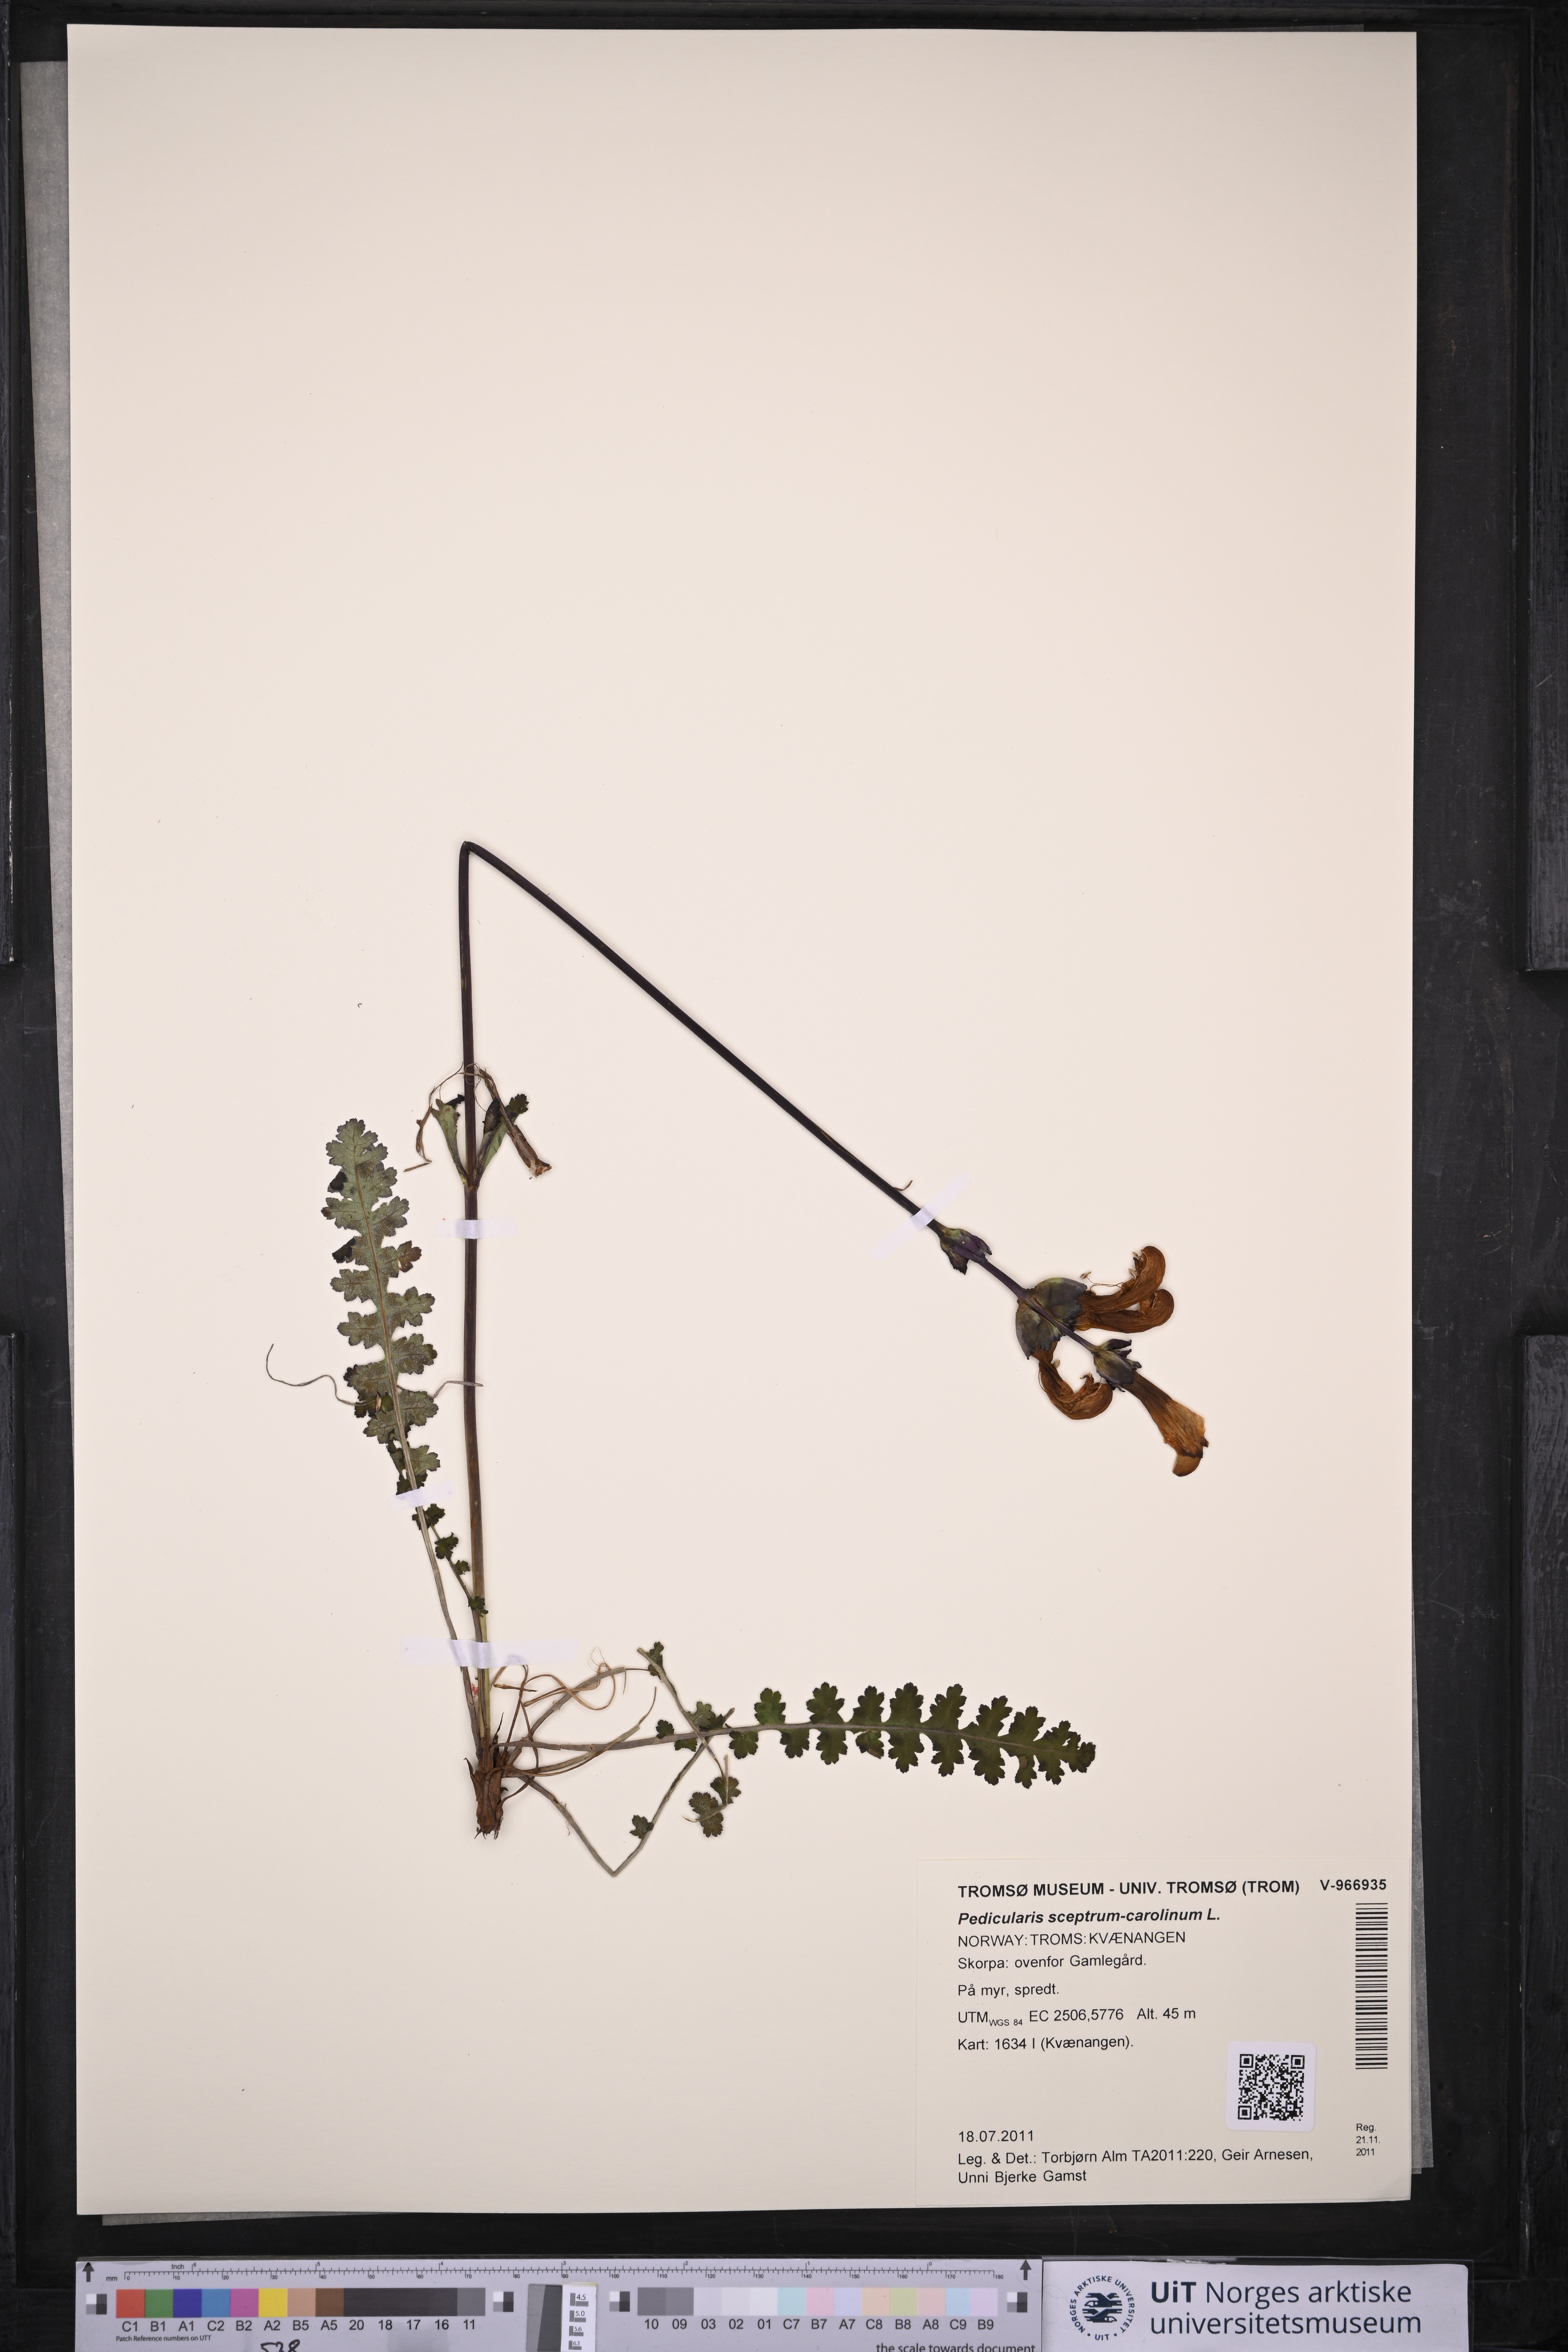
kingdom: Plantae
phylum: Tracheophyta
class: Magnoliopsida
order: Lamiales
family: Orobanchaceae
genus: Pedicularis
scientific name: Pedicularis sceptrum-carolinum
